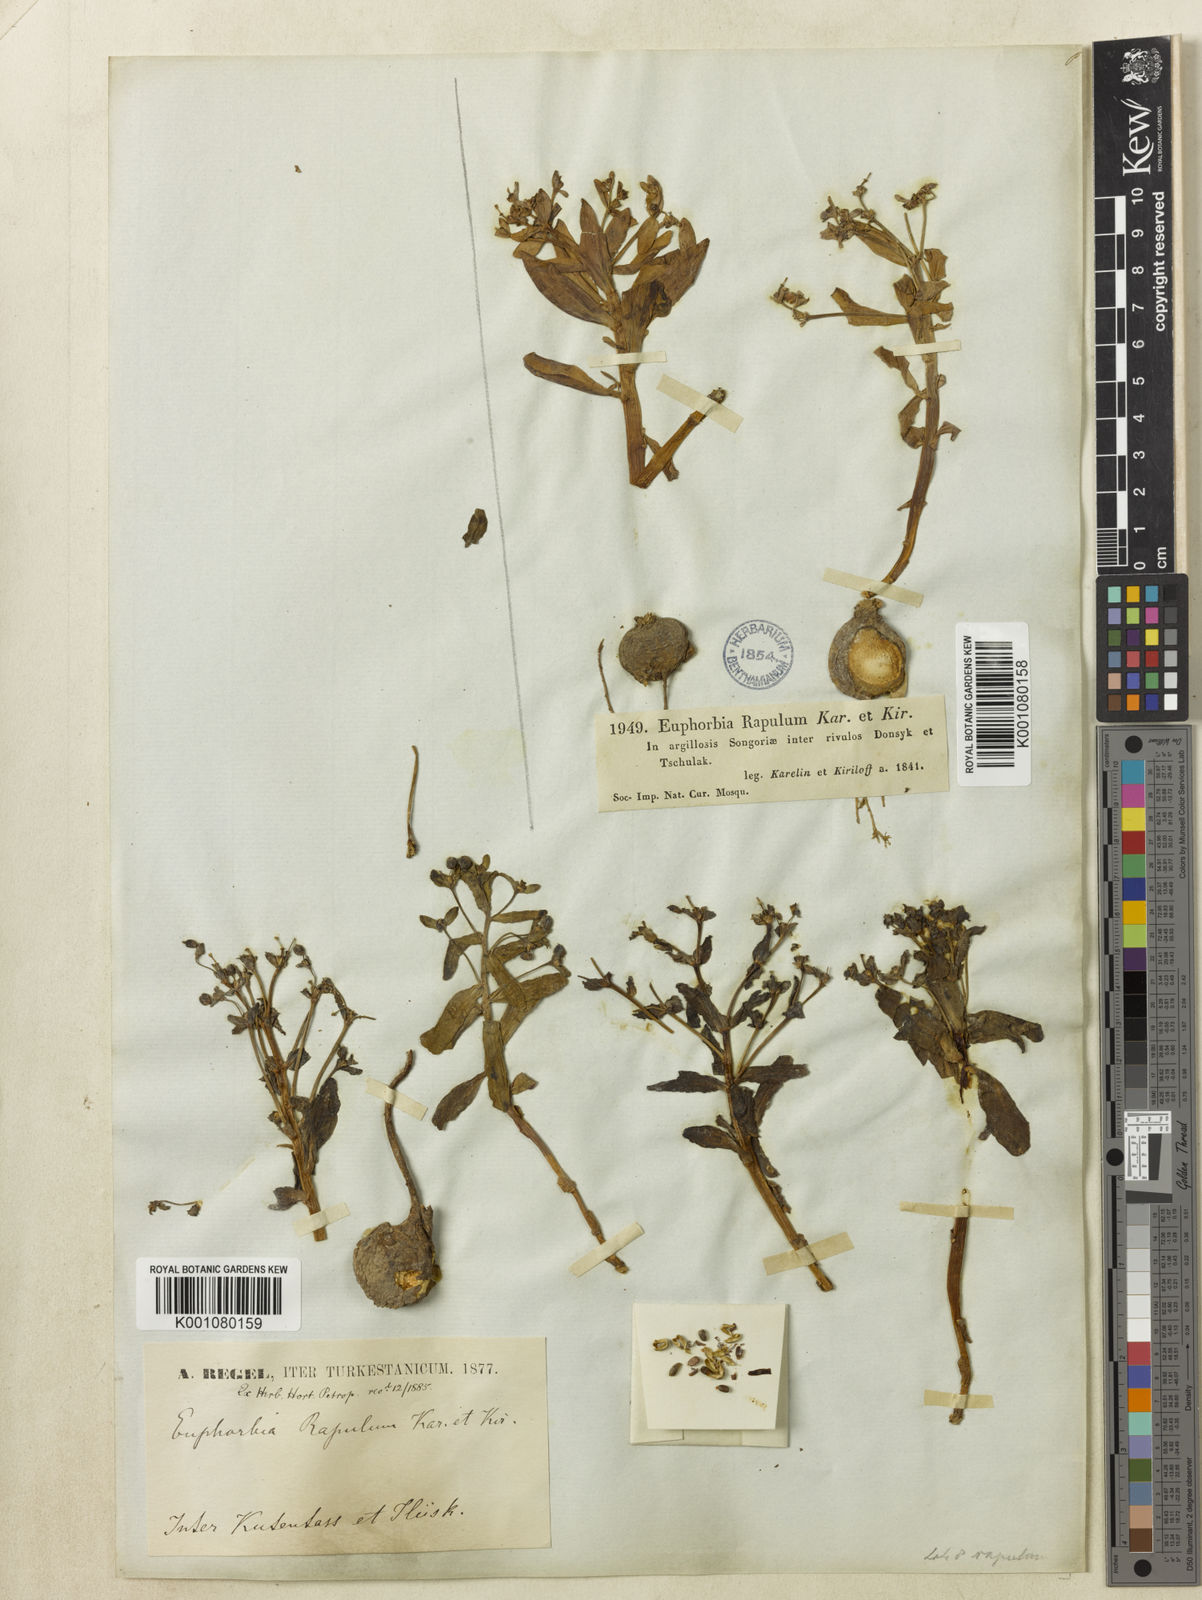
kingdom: Plantae
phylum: Tracheophyta
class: Magnoliopsida
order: Malpighiales
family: Euphorbiaceae
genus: Euphorbia
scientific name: Euphorbia rapulum
